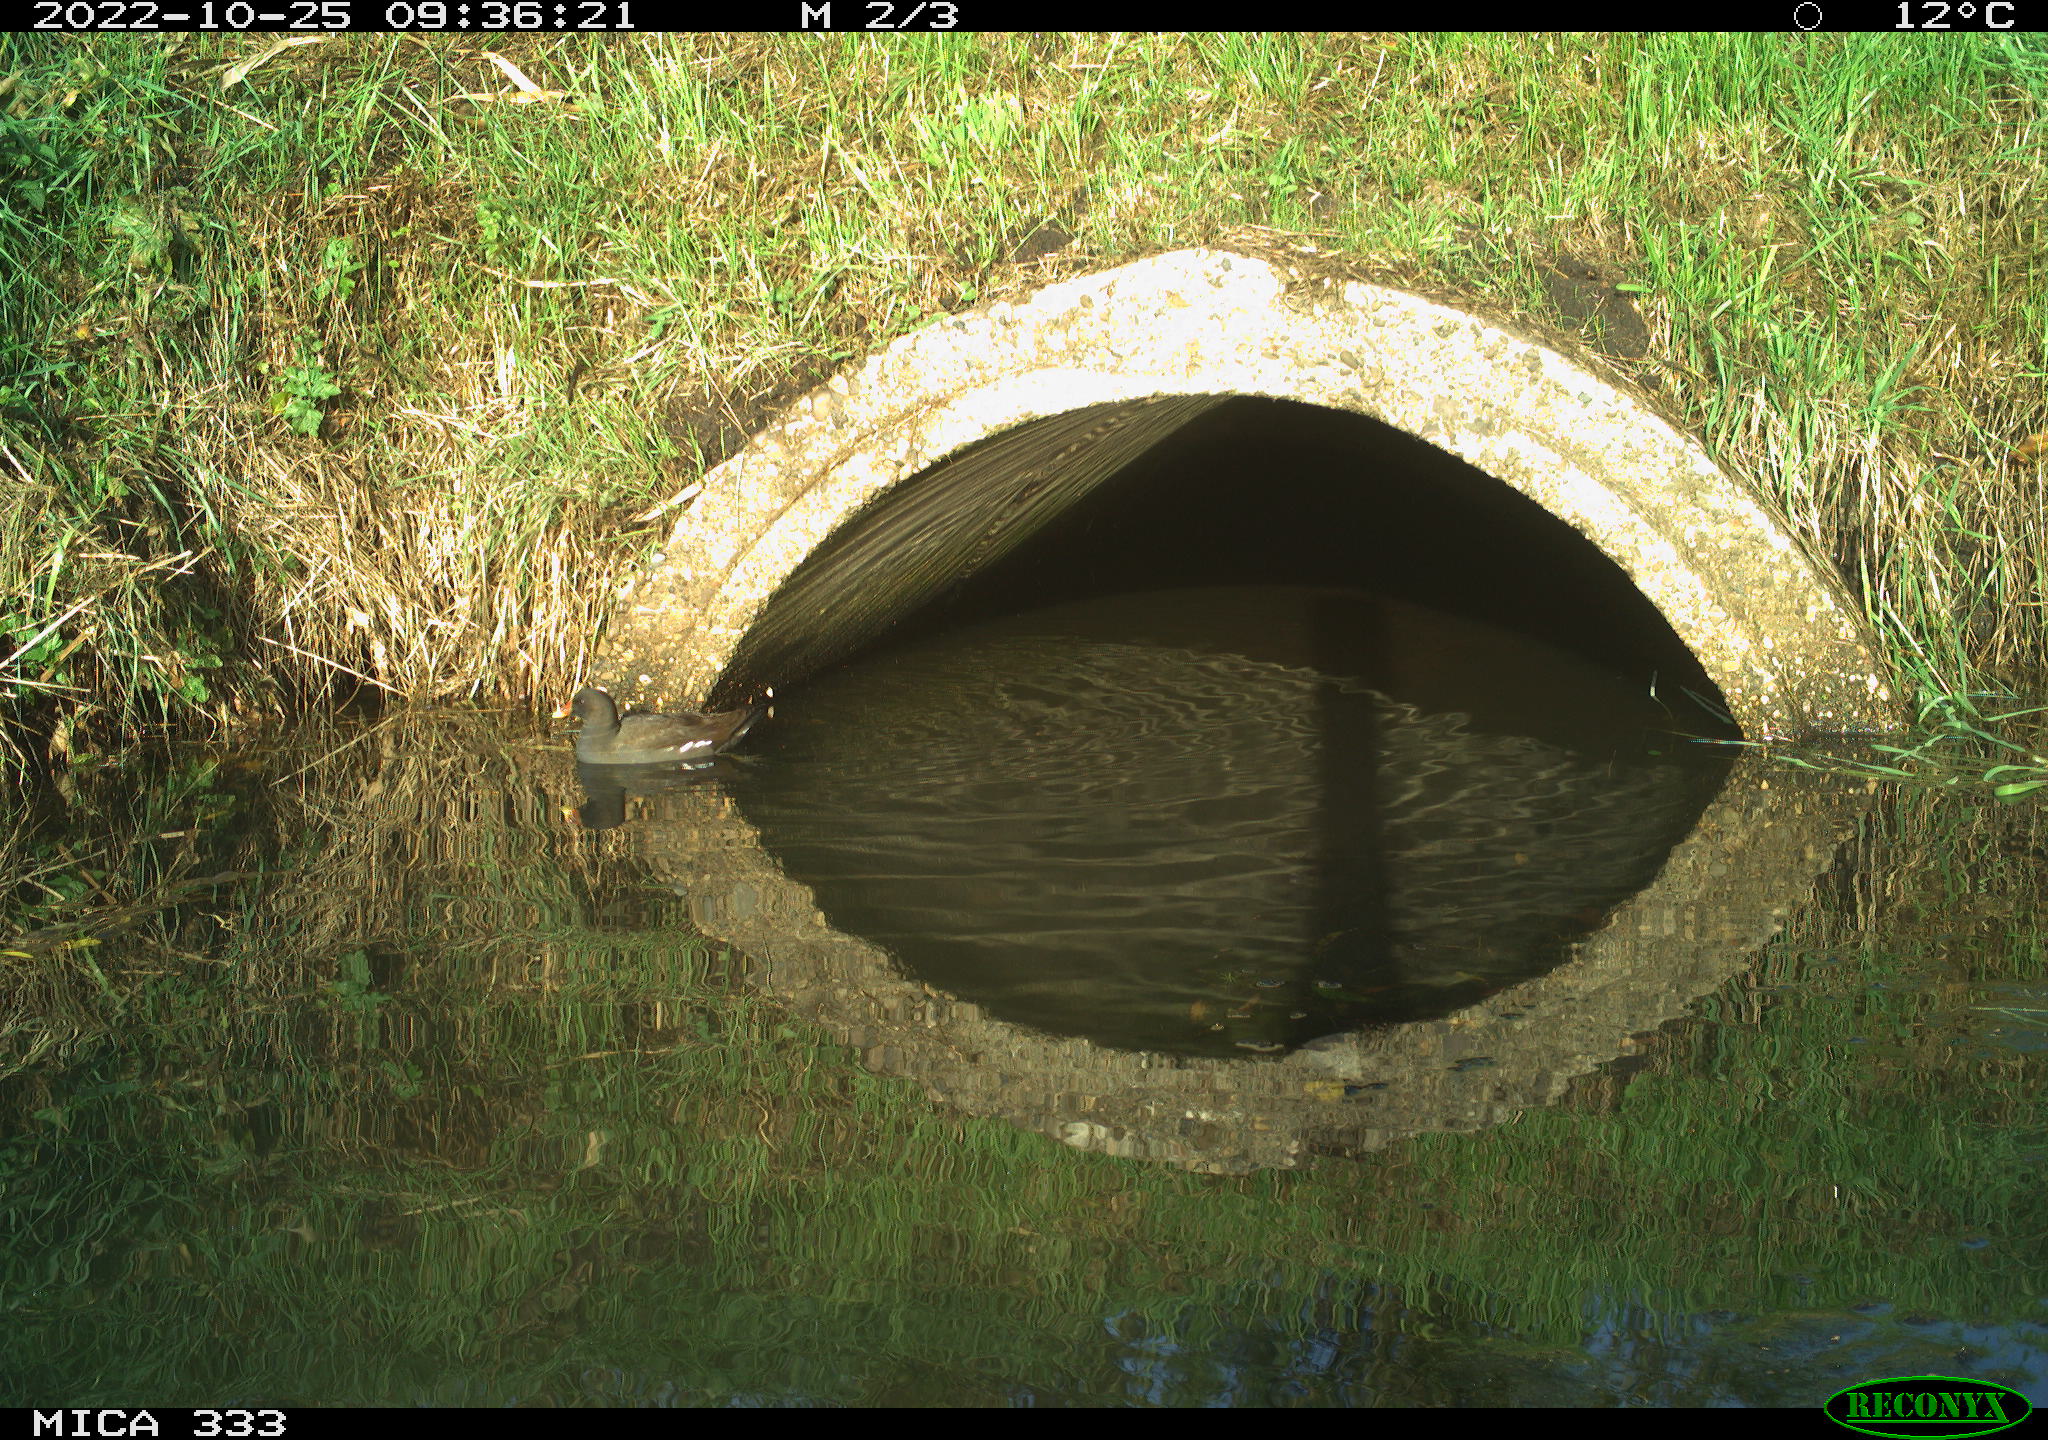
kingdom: Animalia
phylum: Chordata
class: Aves
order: Gruiformes
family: Rallidae
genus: Gallinula
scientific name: Gallinula chloropus
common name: Common moorhen
